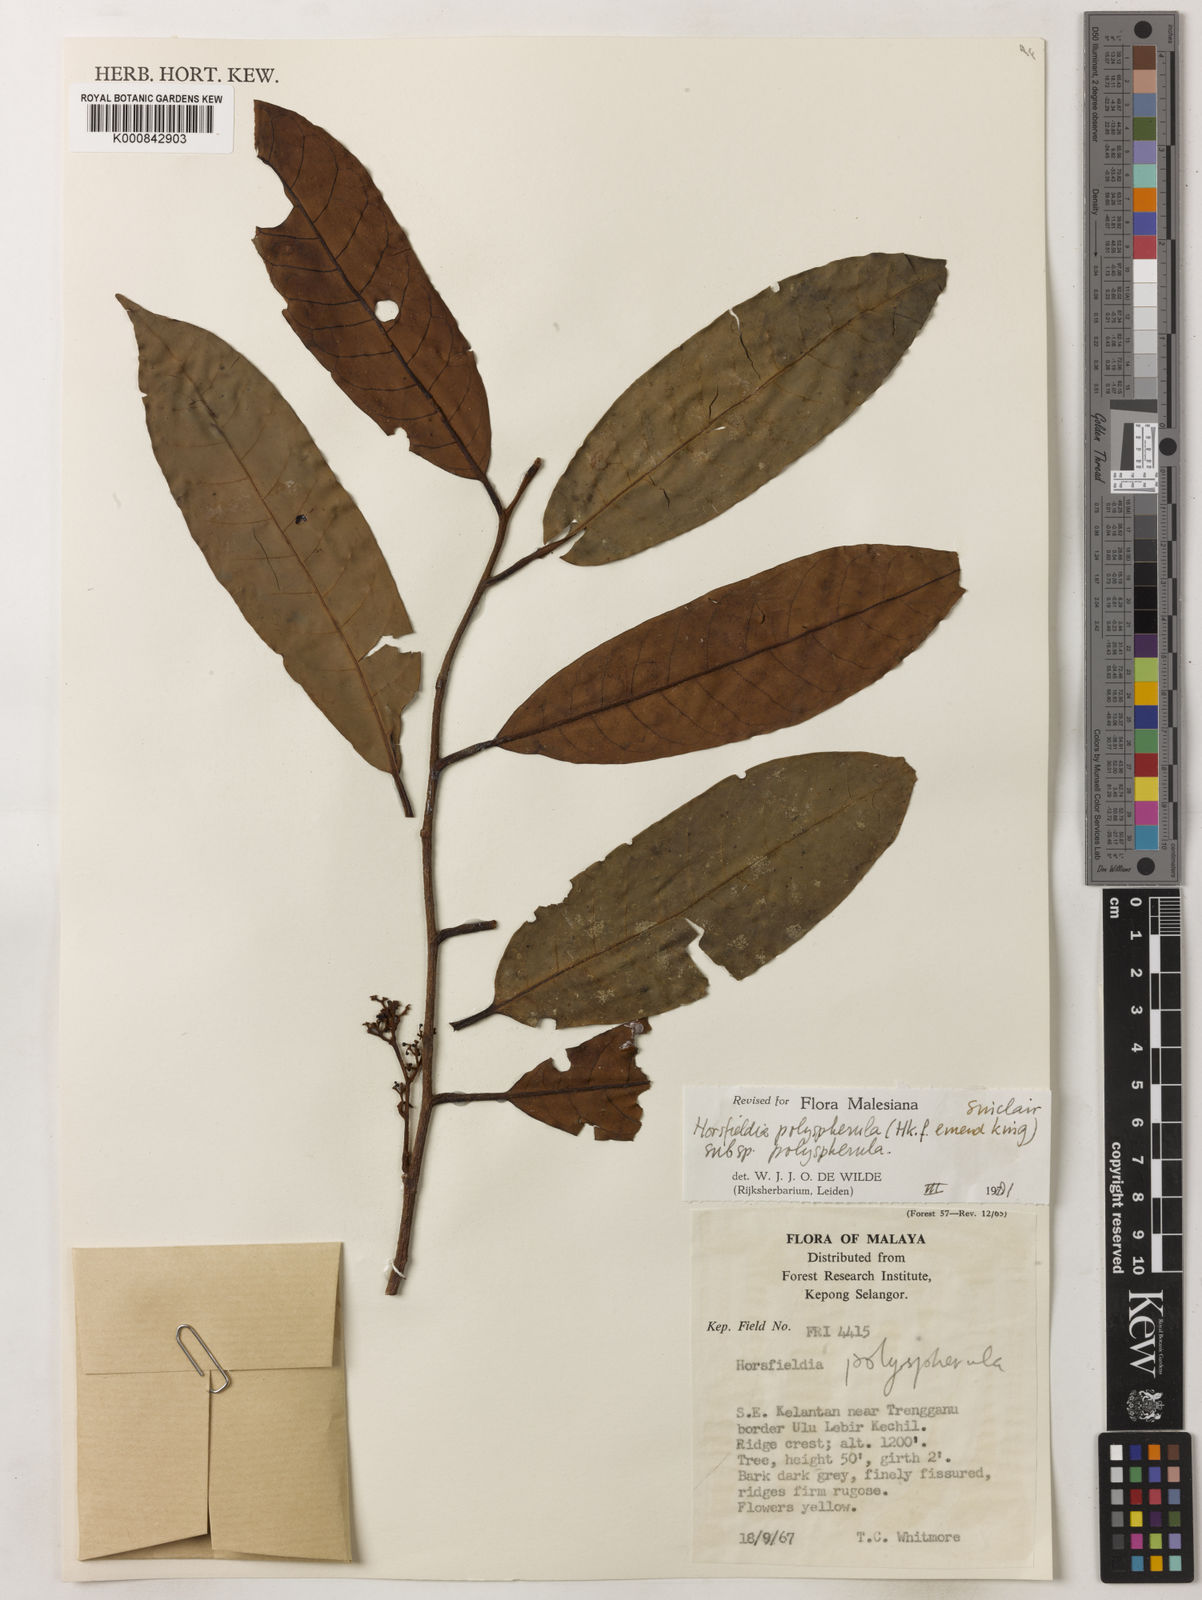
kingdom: Plantae
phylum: Tracheophyta
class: Magnoliopsida
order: Magnoliales
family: Myristicaceae
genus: Horsfieldia
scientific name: Horsfieldia
